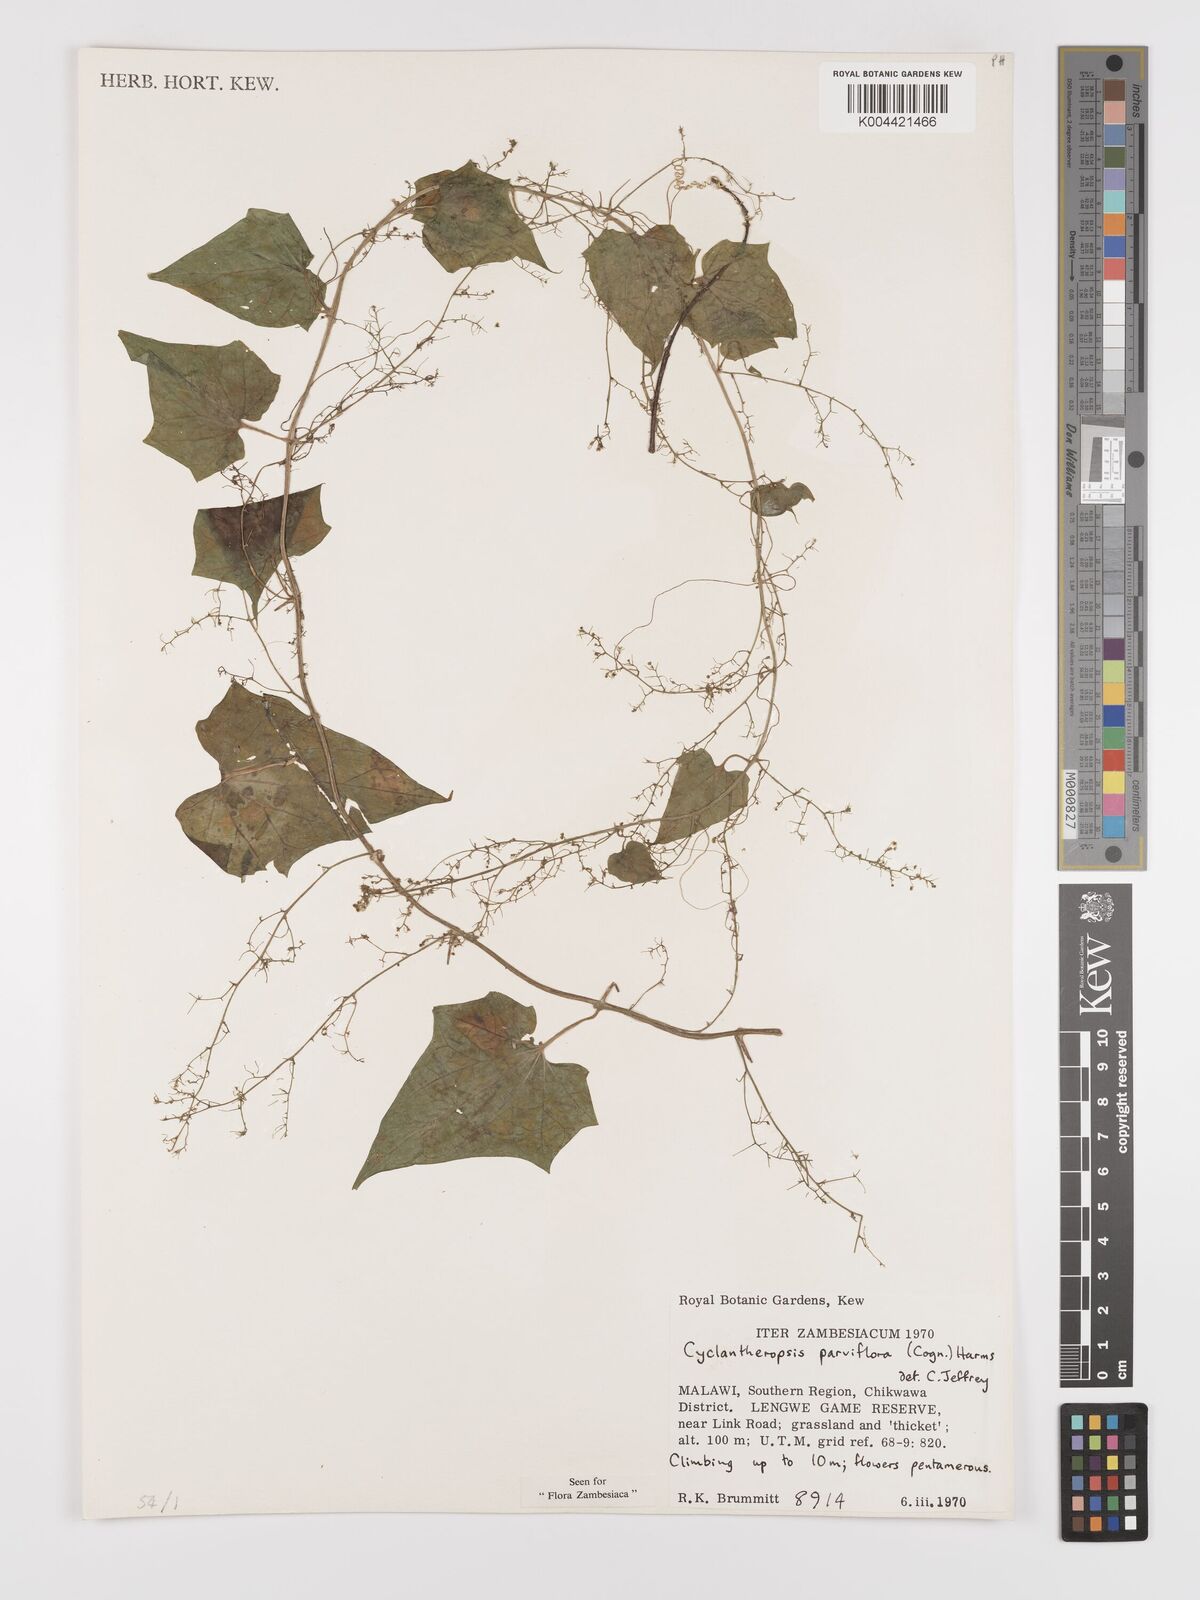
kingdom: Plantae
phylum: Tracheophyta
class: Magnoliopsida
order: Cucurbitales
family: Cucurbitaceae
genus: Cyclantheropsis
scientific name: Cyclantheropsis parviflora
